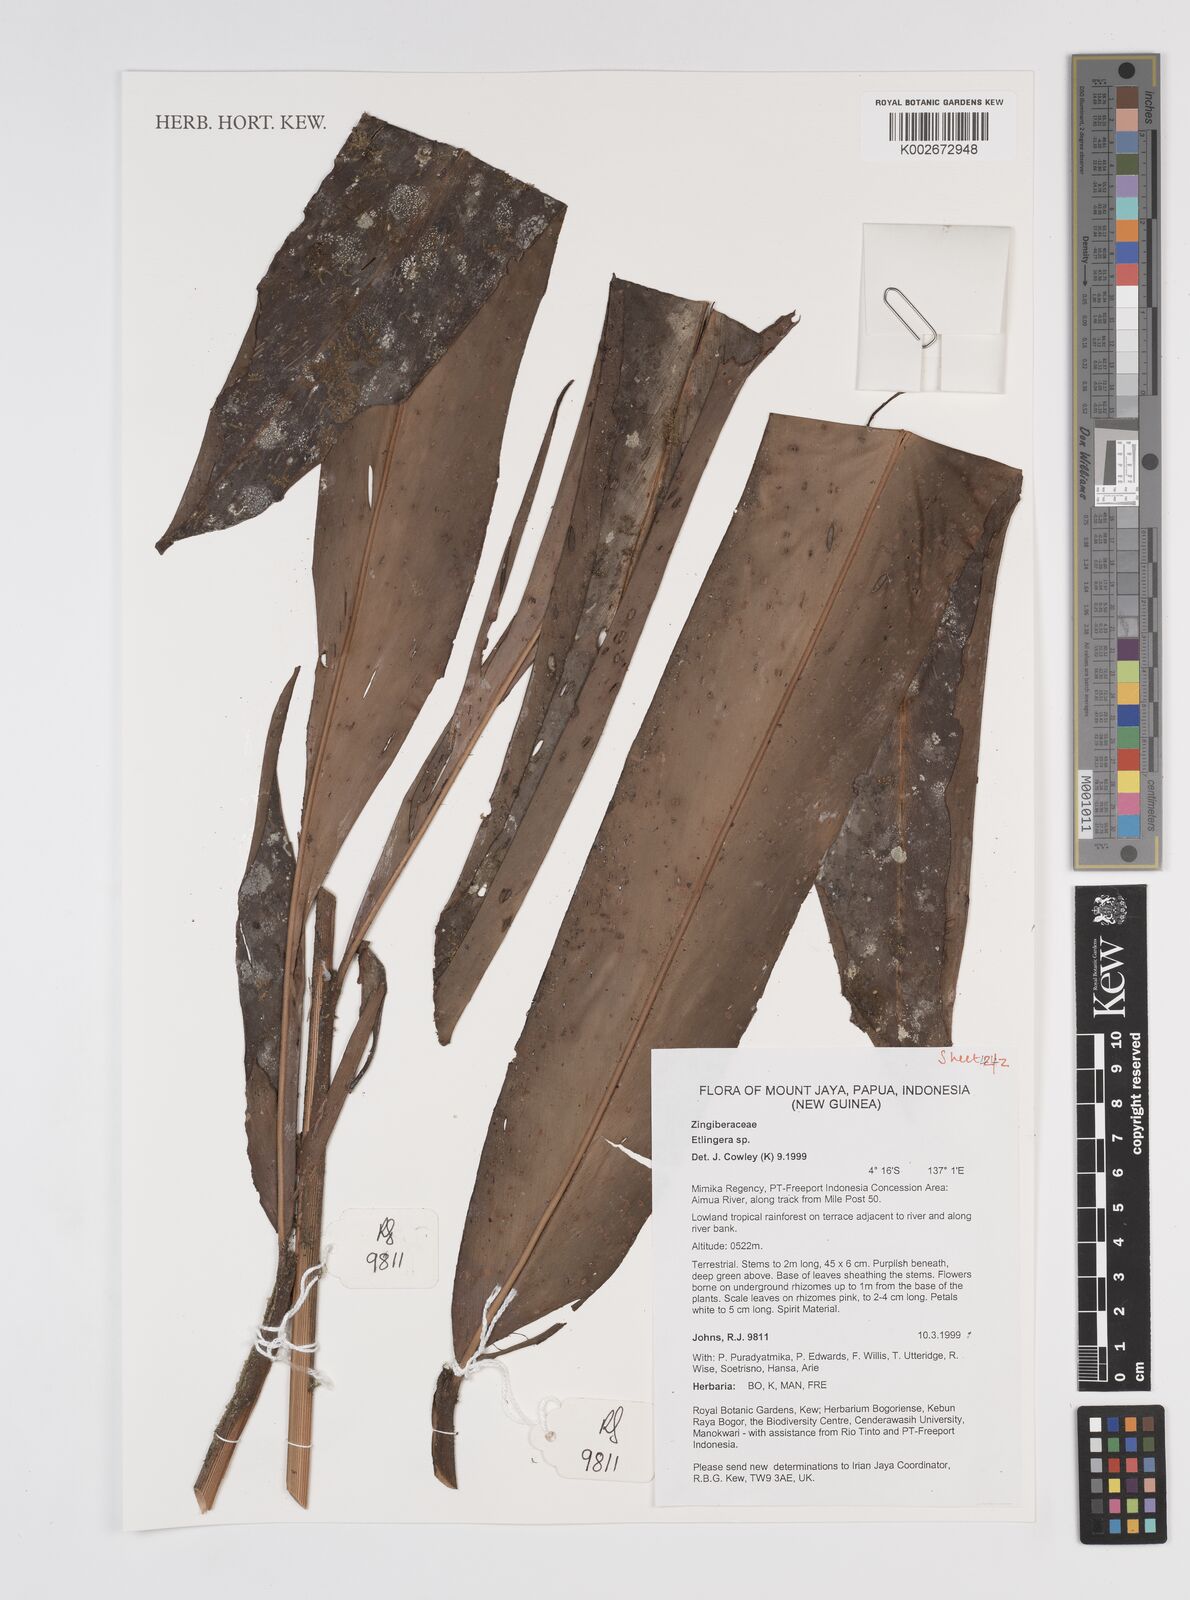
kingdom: Plantae
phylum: Tracheophyta
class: Liliopsida
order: Zingiberales
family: Zingiberaceae
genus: Etlingera
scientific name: Etlingera
